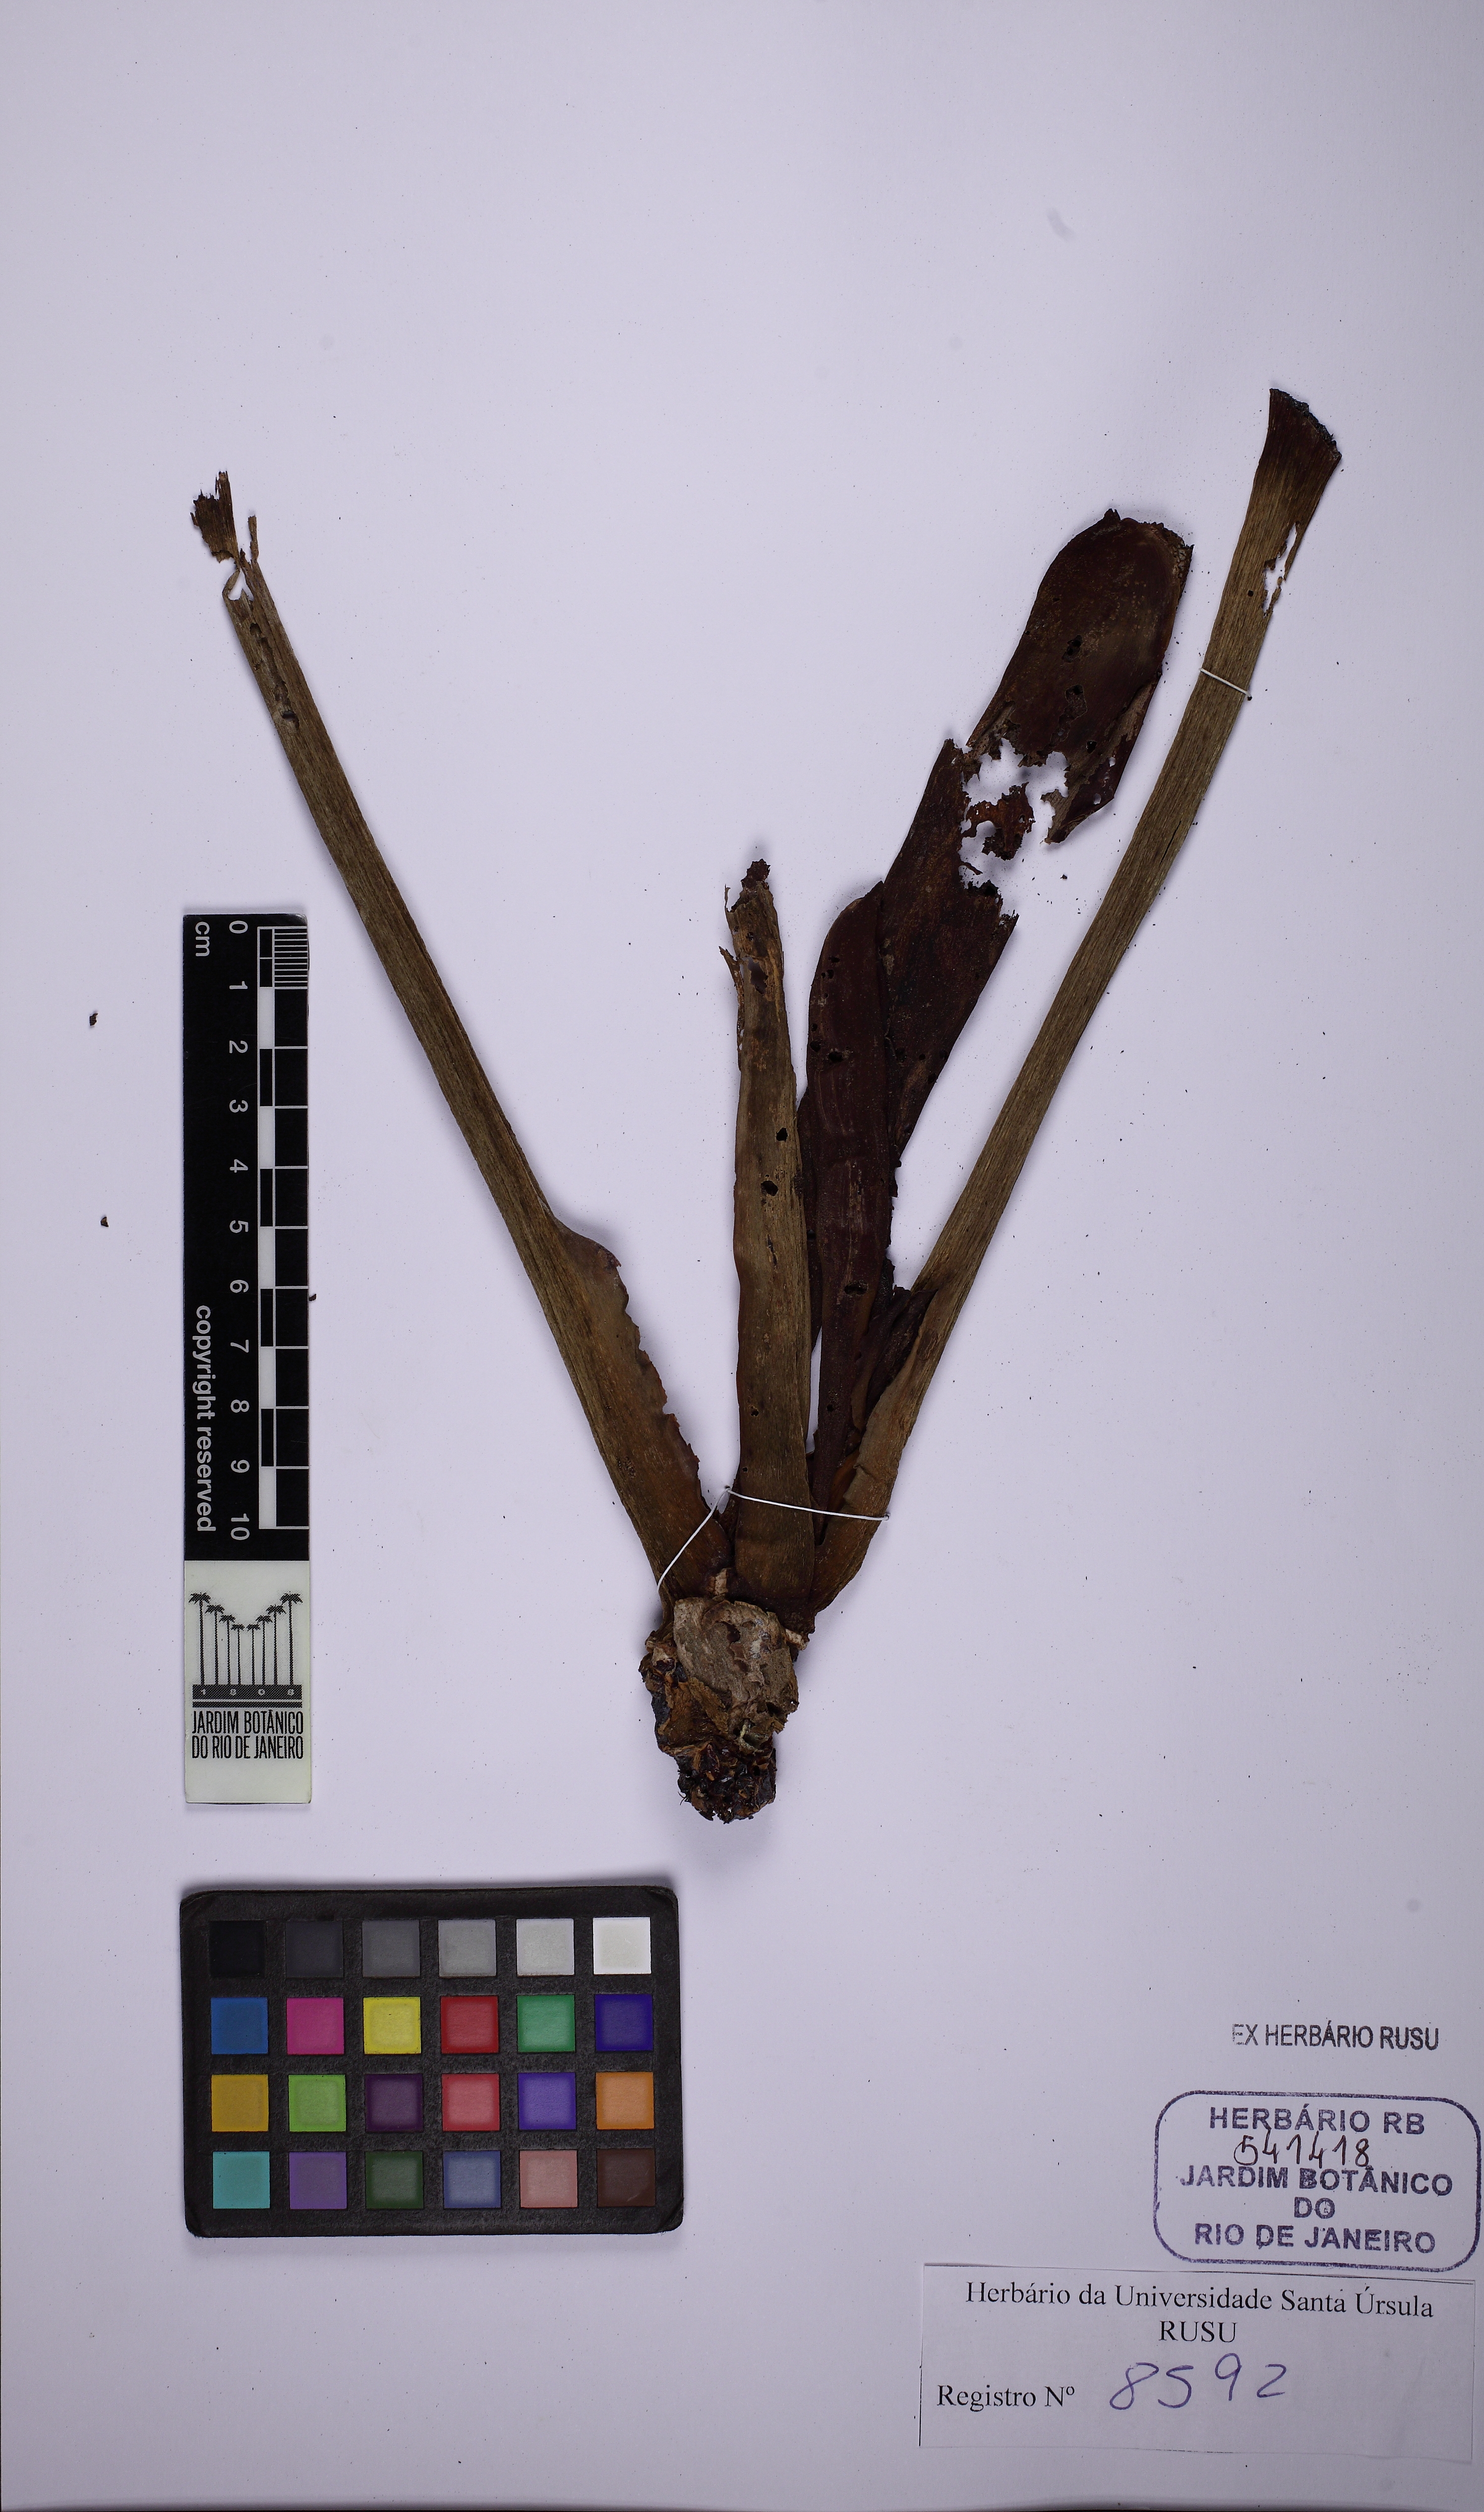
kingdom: Plantae
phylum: Tracheophyta
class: Liliopsida
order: Alismatales
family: Araceae
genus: Philodendron
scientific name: Philodendron cordatum
